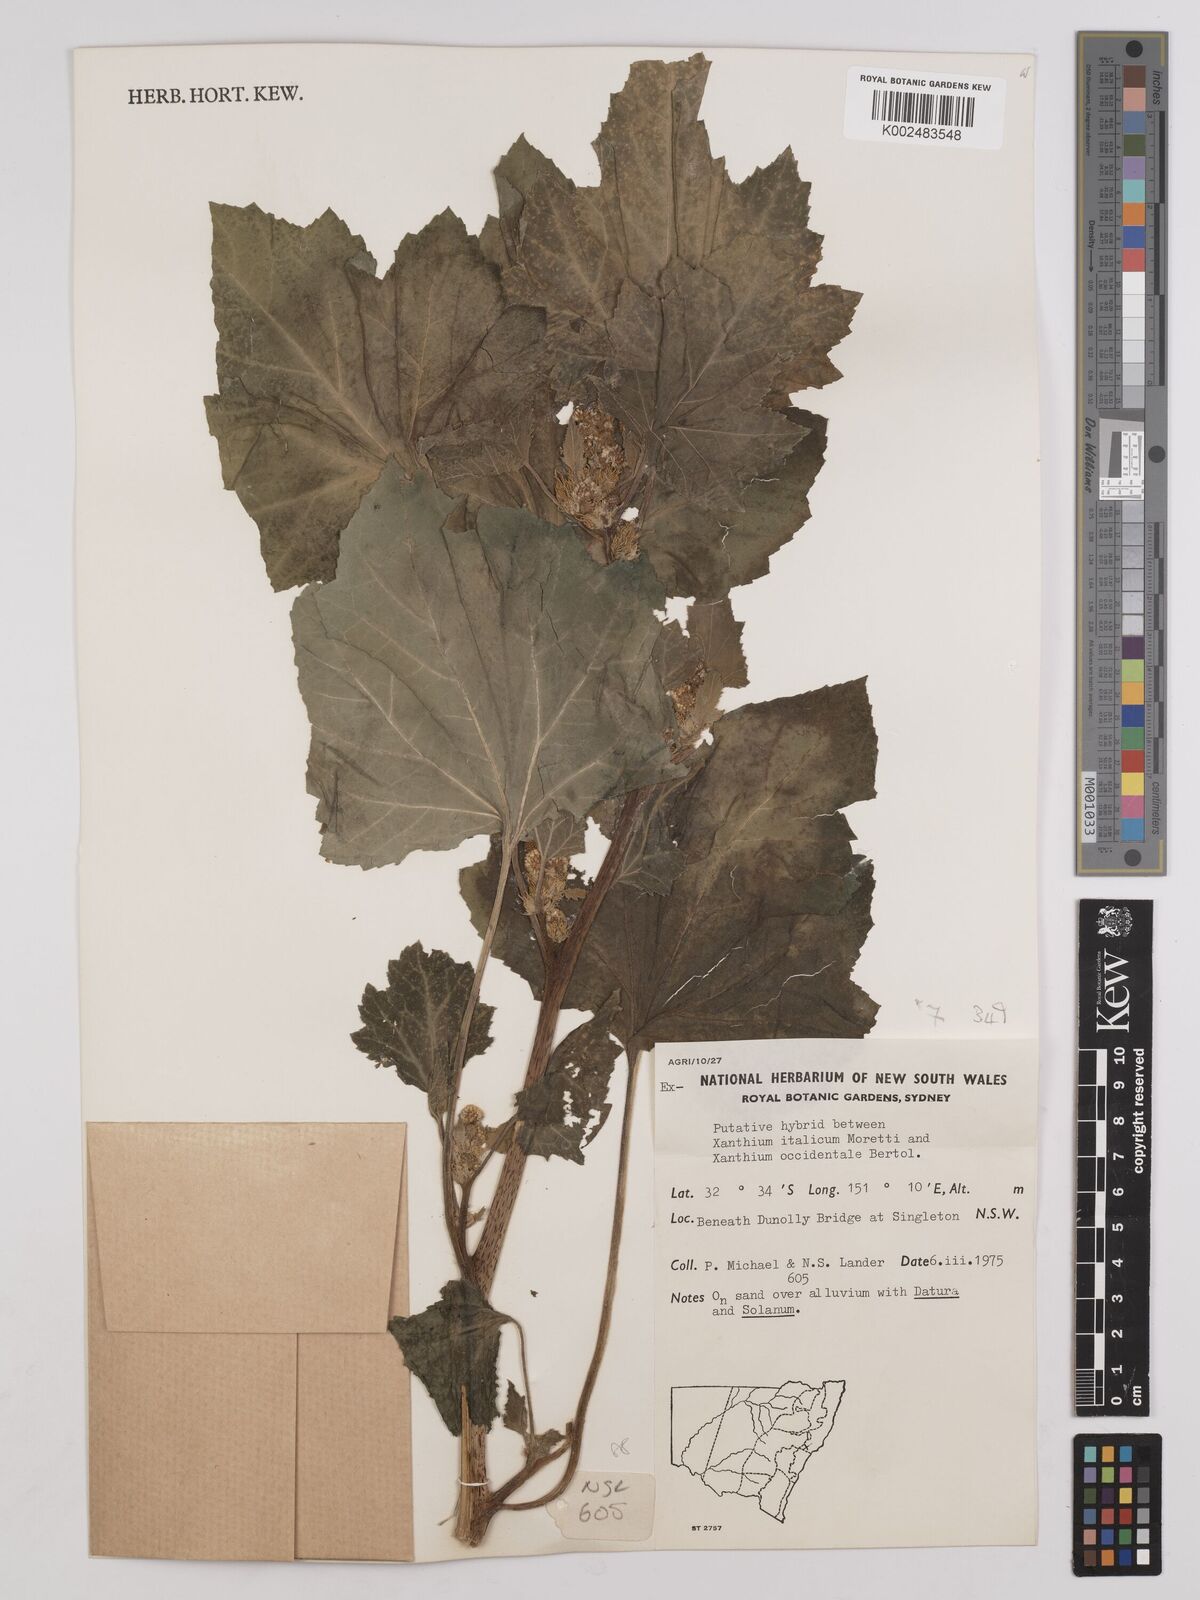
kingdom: Plantae
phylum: Tracheophyta
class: Magnoliopsida
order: Asterales
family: Asteraceae
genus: Xanthium
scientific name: Xanthium orientale
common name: Californian burr
